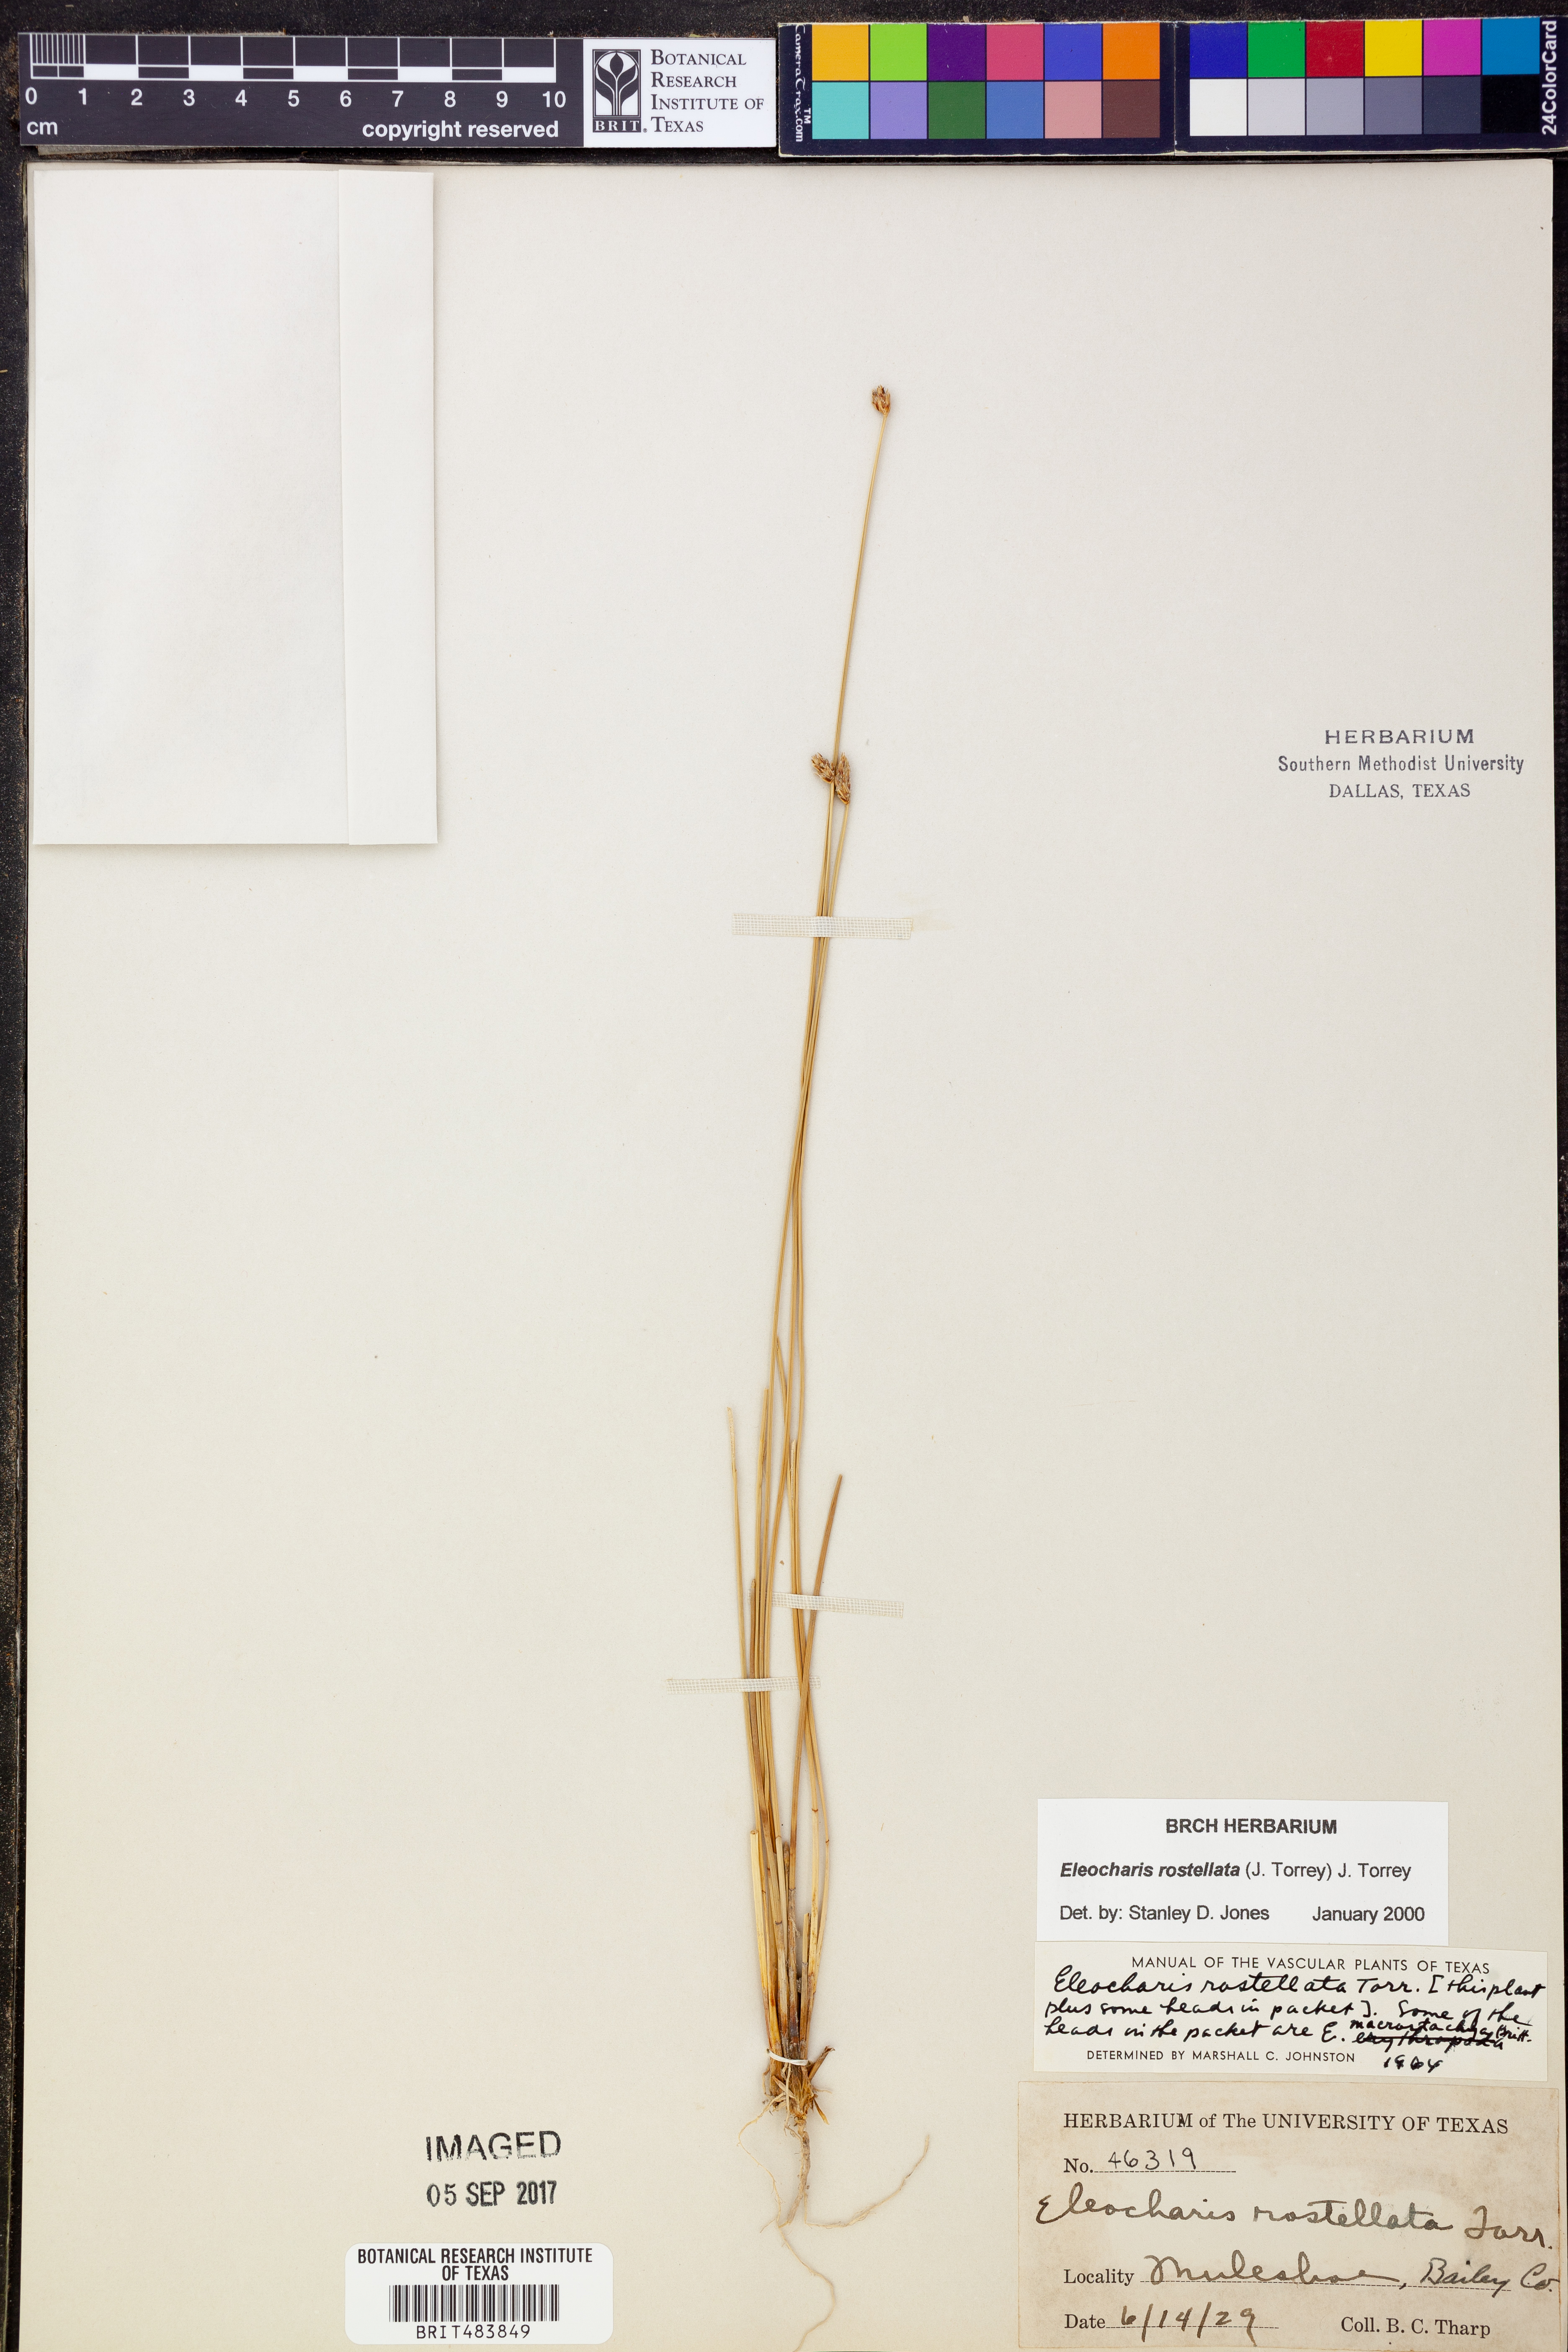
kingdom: Plantae
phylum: Tracheophyta
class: Liliopsida
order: Poales
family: Cyperaceae
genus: Eleocharis
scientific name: Eleocharis rostellata
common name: Walking sedge
